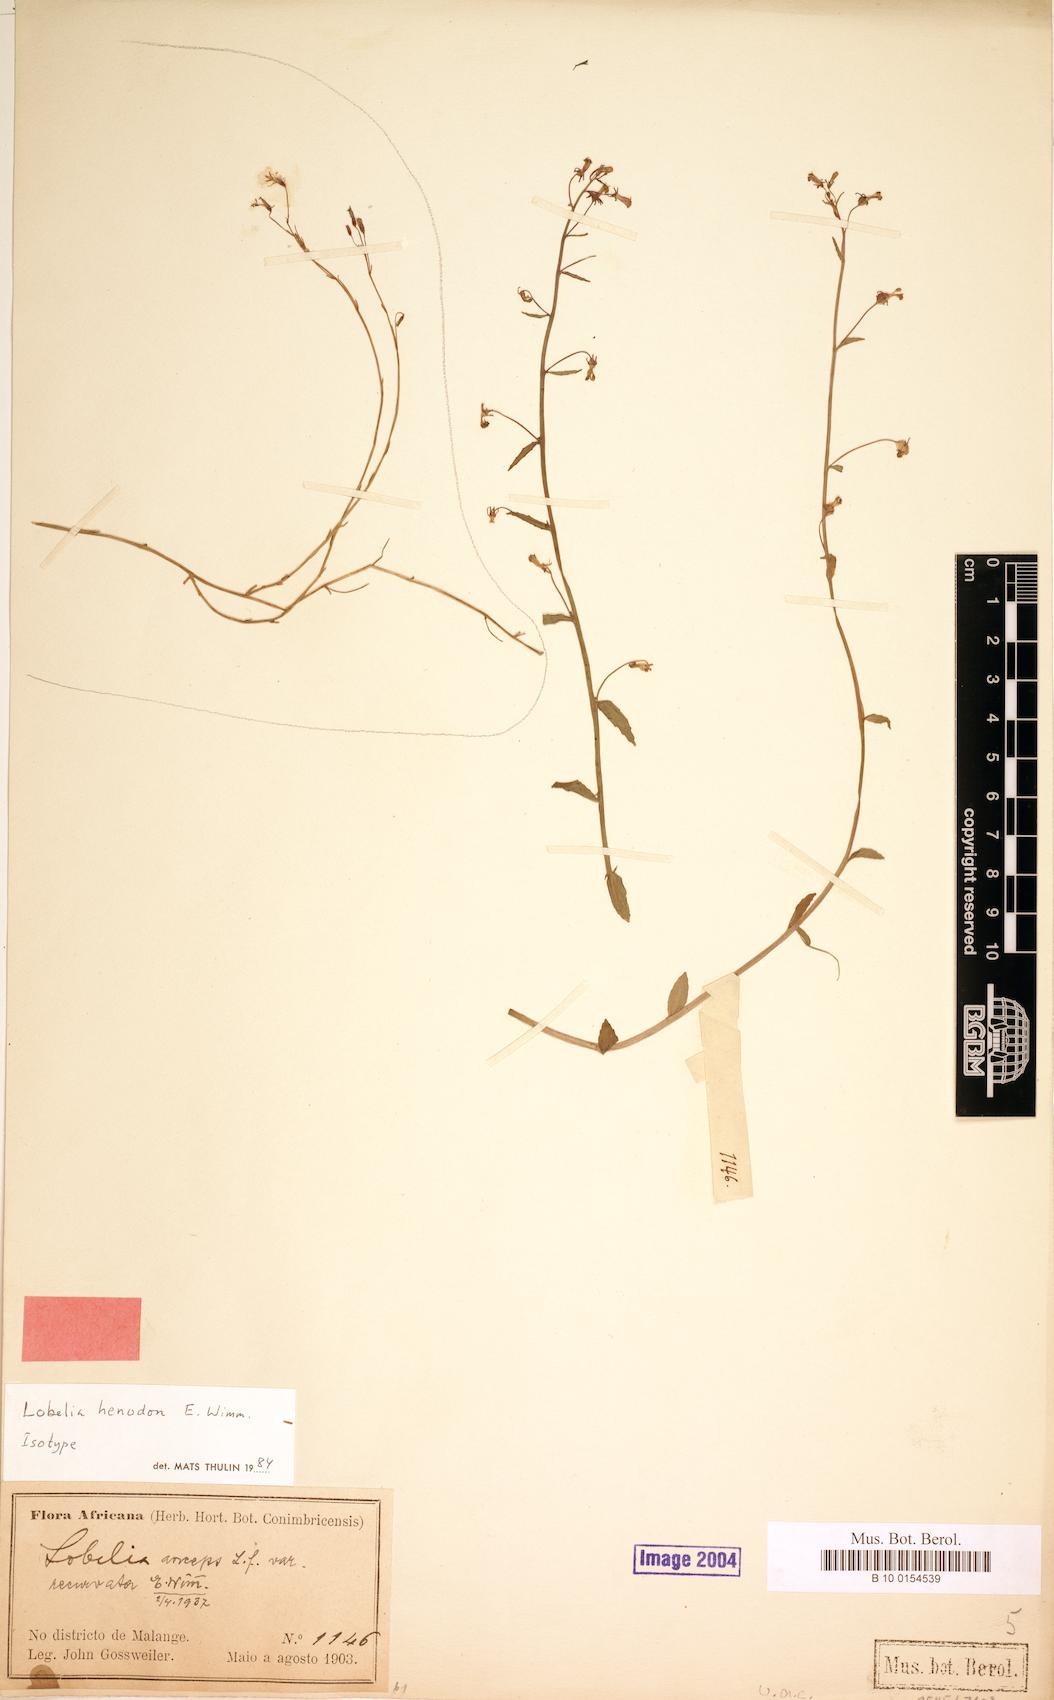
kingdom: Plantae
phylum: Tracheophyta
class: Magnoliopsida
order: Asterales
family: Campanulaceae
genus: Lobelia
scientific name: Lobelia henodon
